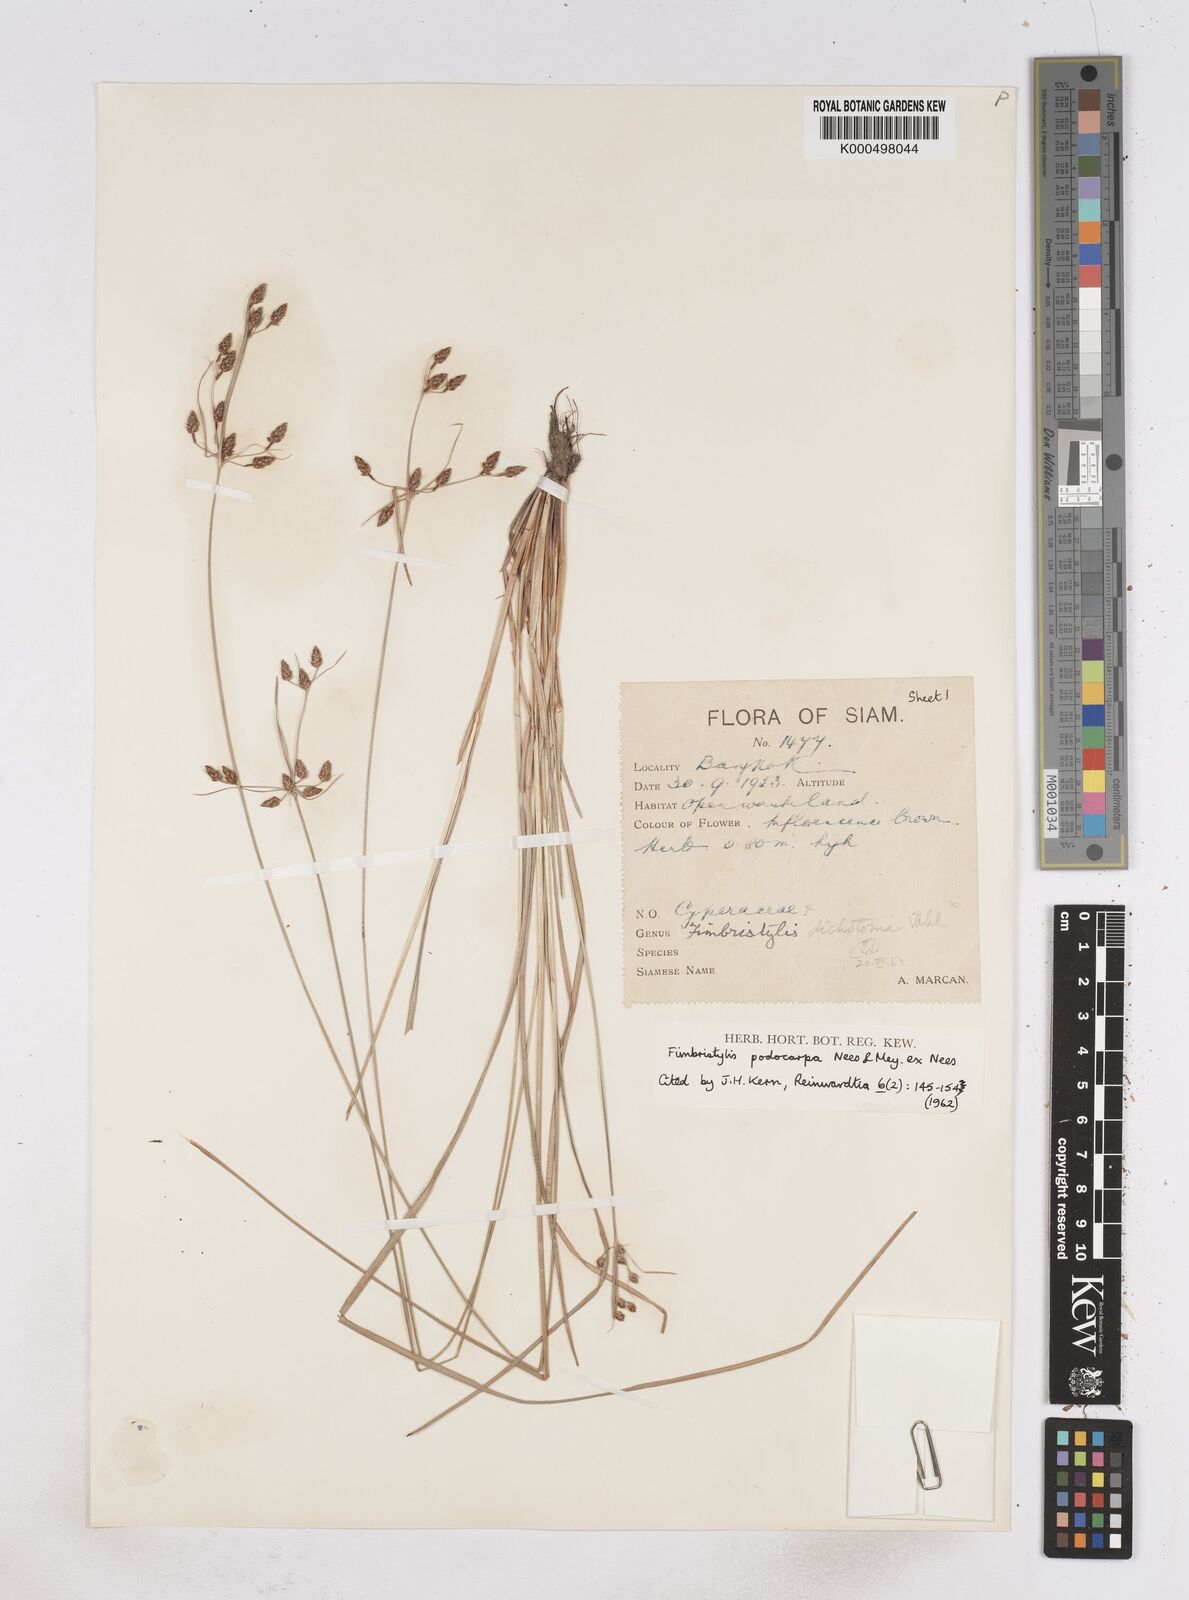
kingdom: Plantae
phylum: Tracheophyta
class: Liliopsida
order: Poales
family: Cyperaceae
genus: Fimbristylis
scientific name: Fimbristylis dichotoma
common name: Forked fimbry
